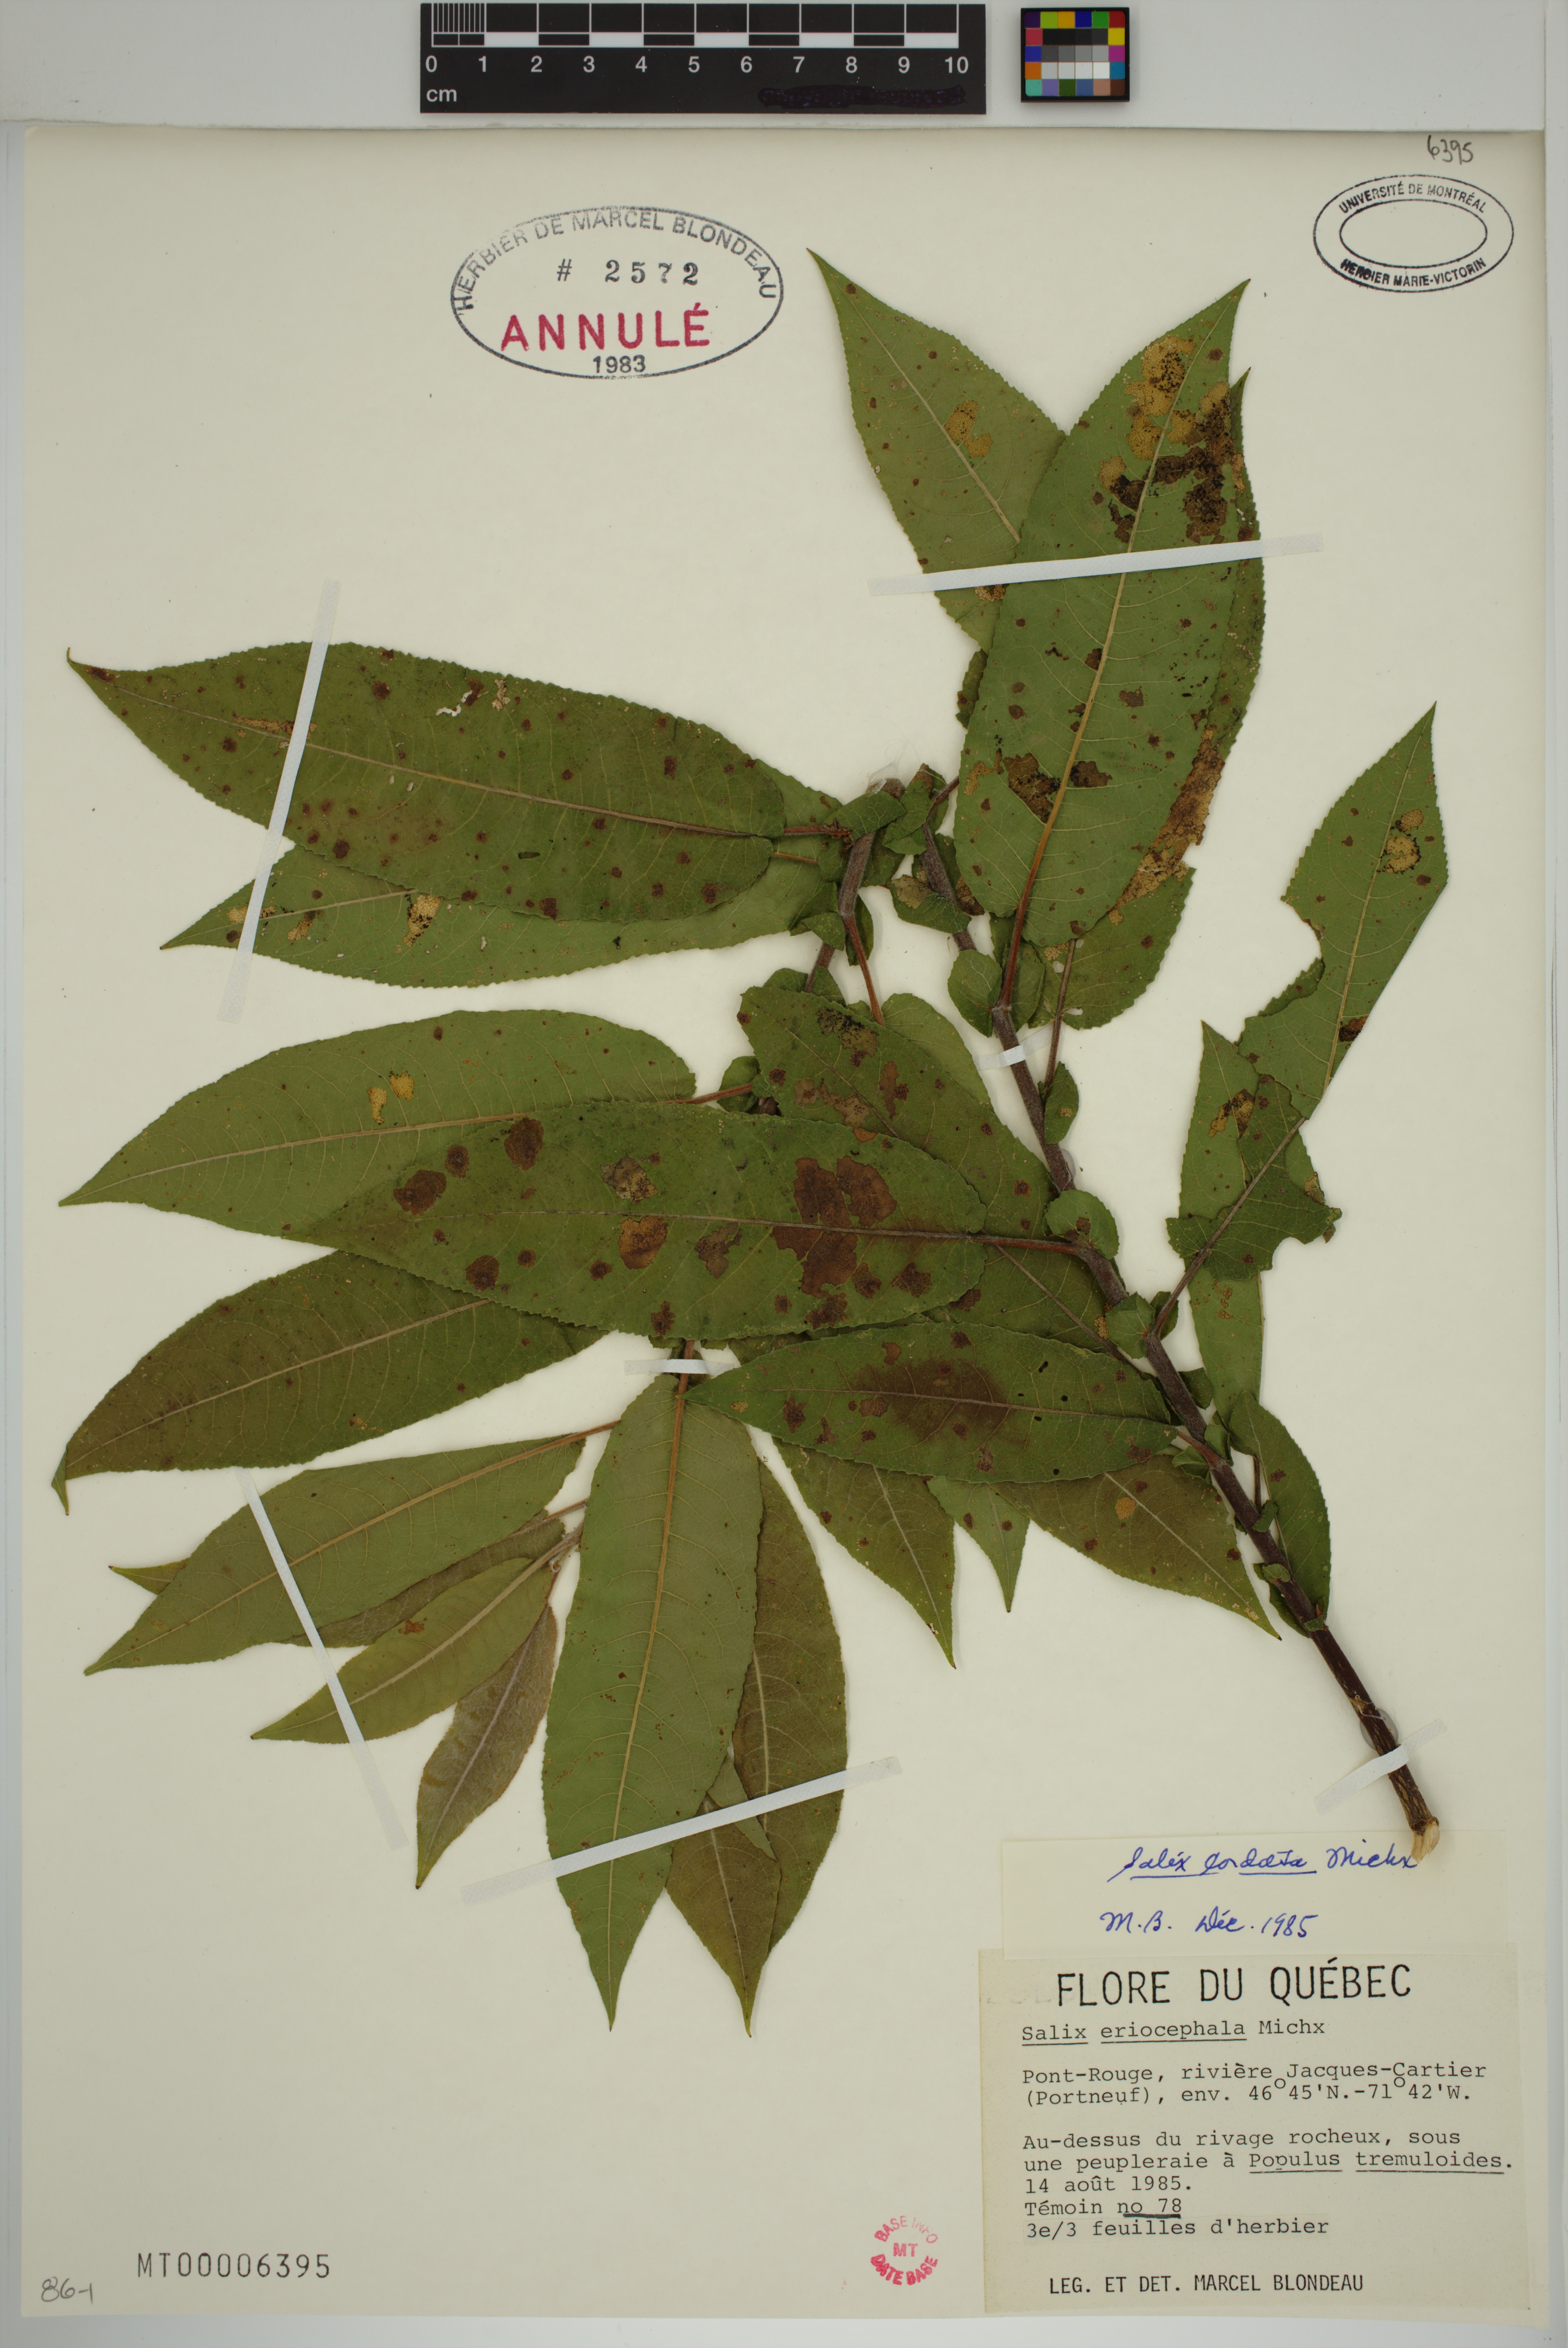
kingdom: Plantae
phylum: Tracheophyta
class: Magnoliopsida
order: Malpighiales
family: Salicaceae
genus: Salix
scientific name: Salix cordata
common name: Heart-leaf willow
